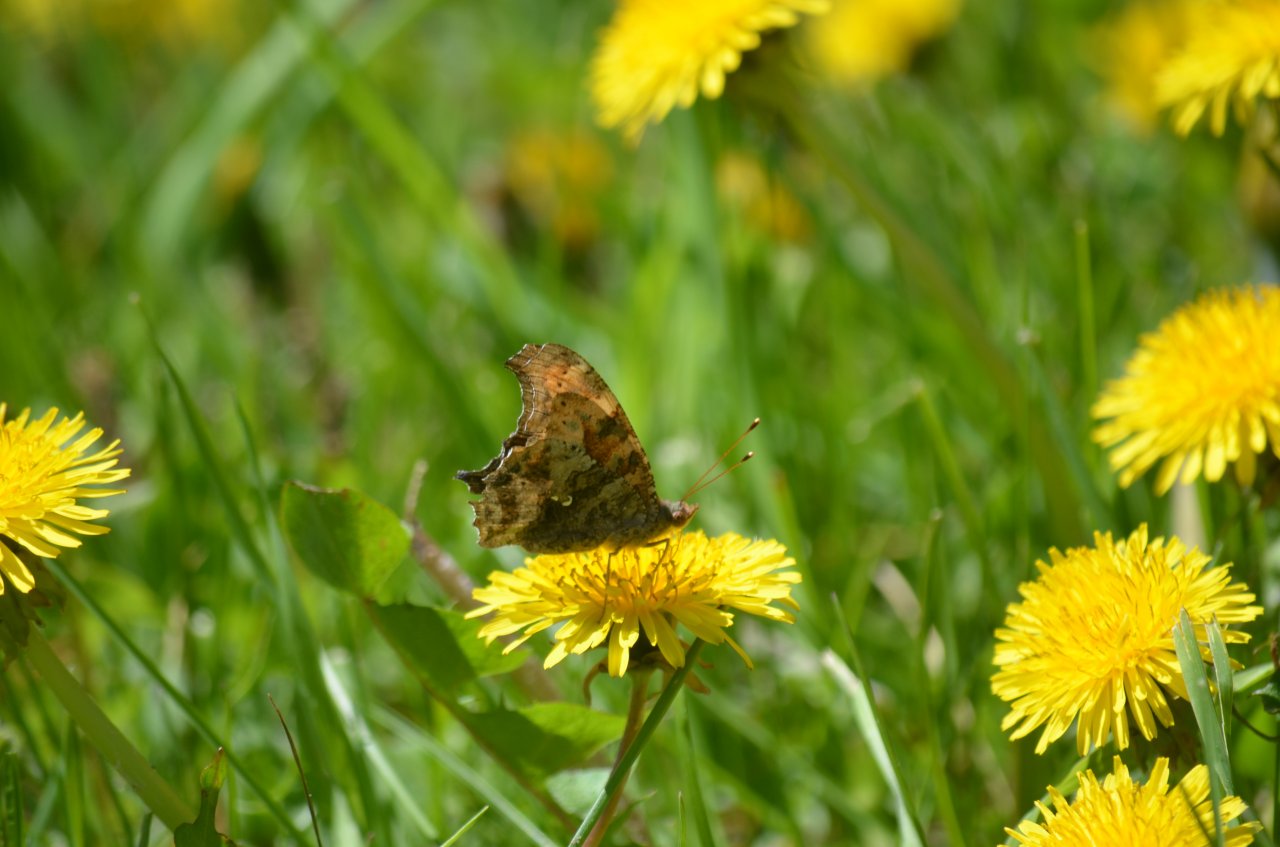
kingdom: Animalia
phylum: Arthropoda
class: Insecta
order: Lepidoptera
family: Nymphalidae
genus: Polygonia
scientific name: Polygonia interrogationis
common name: Question Mark
